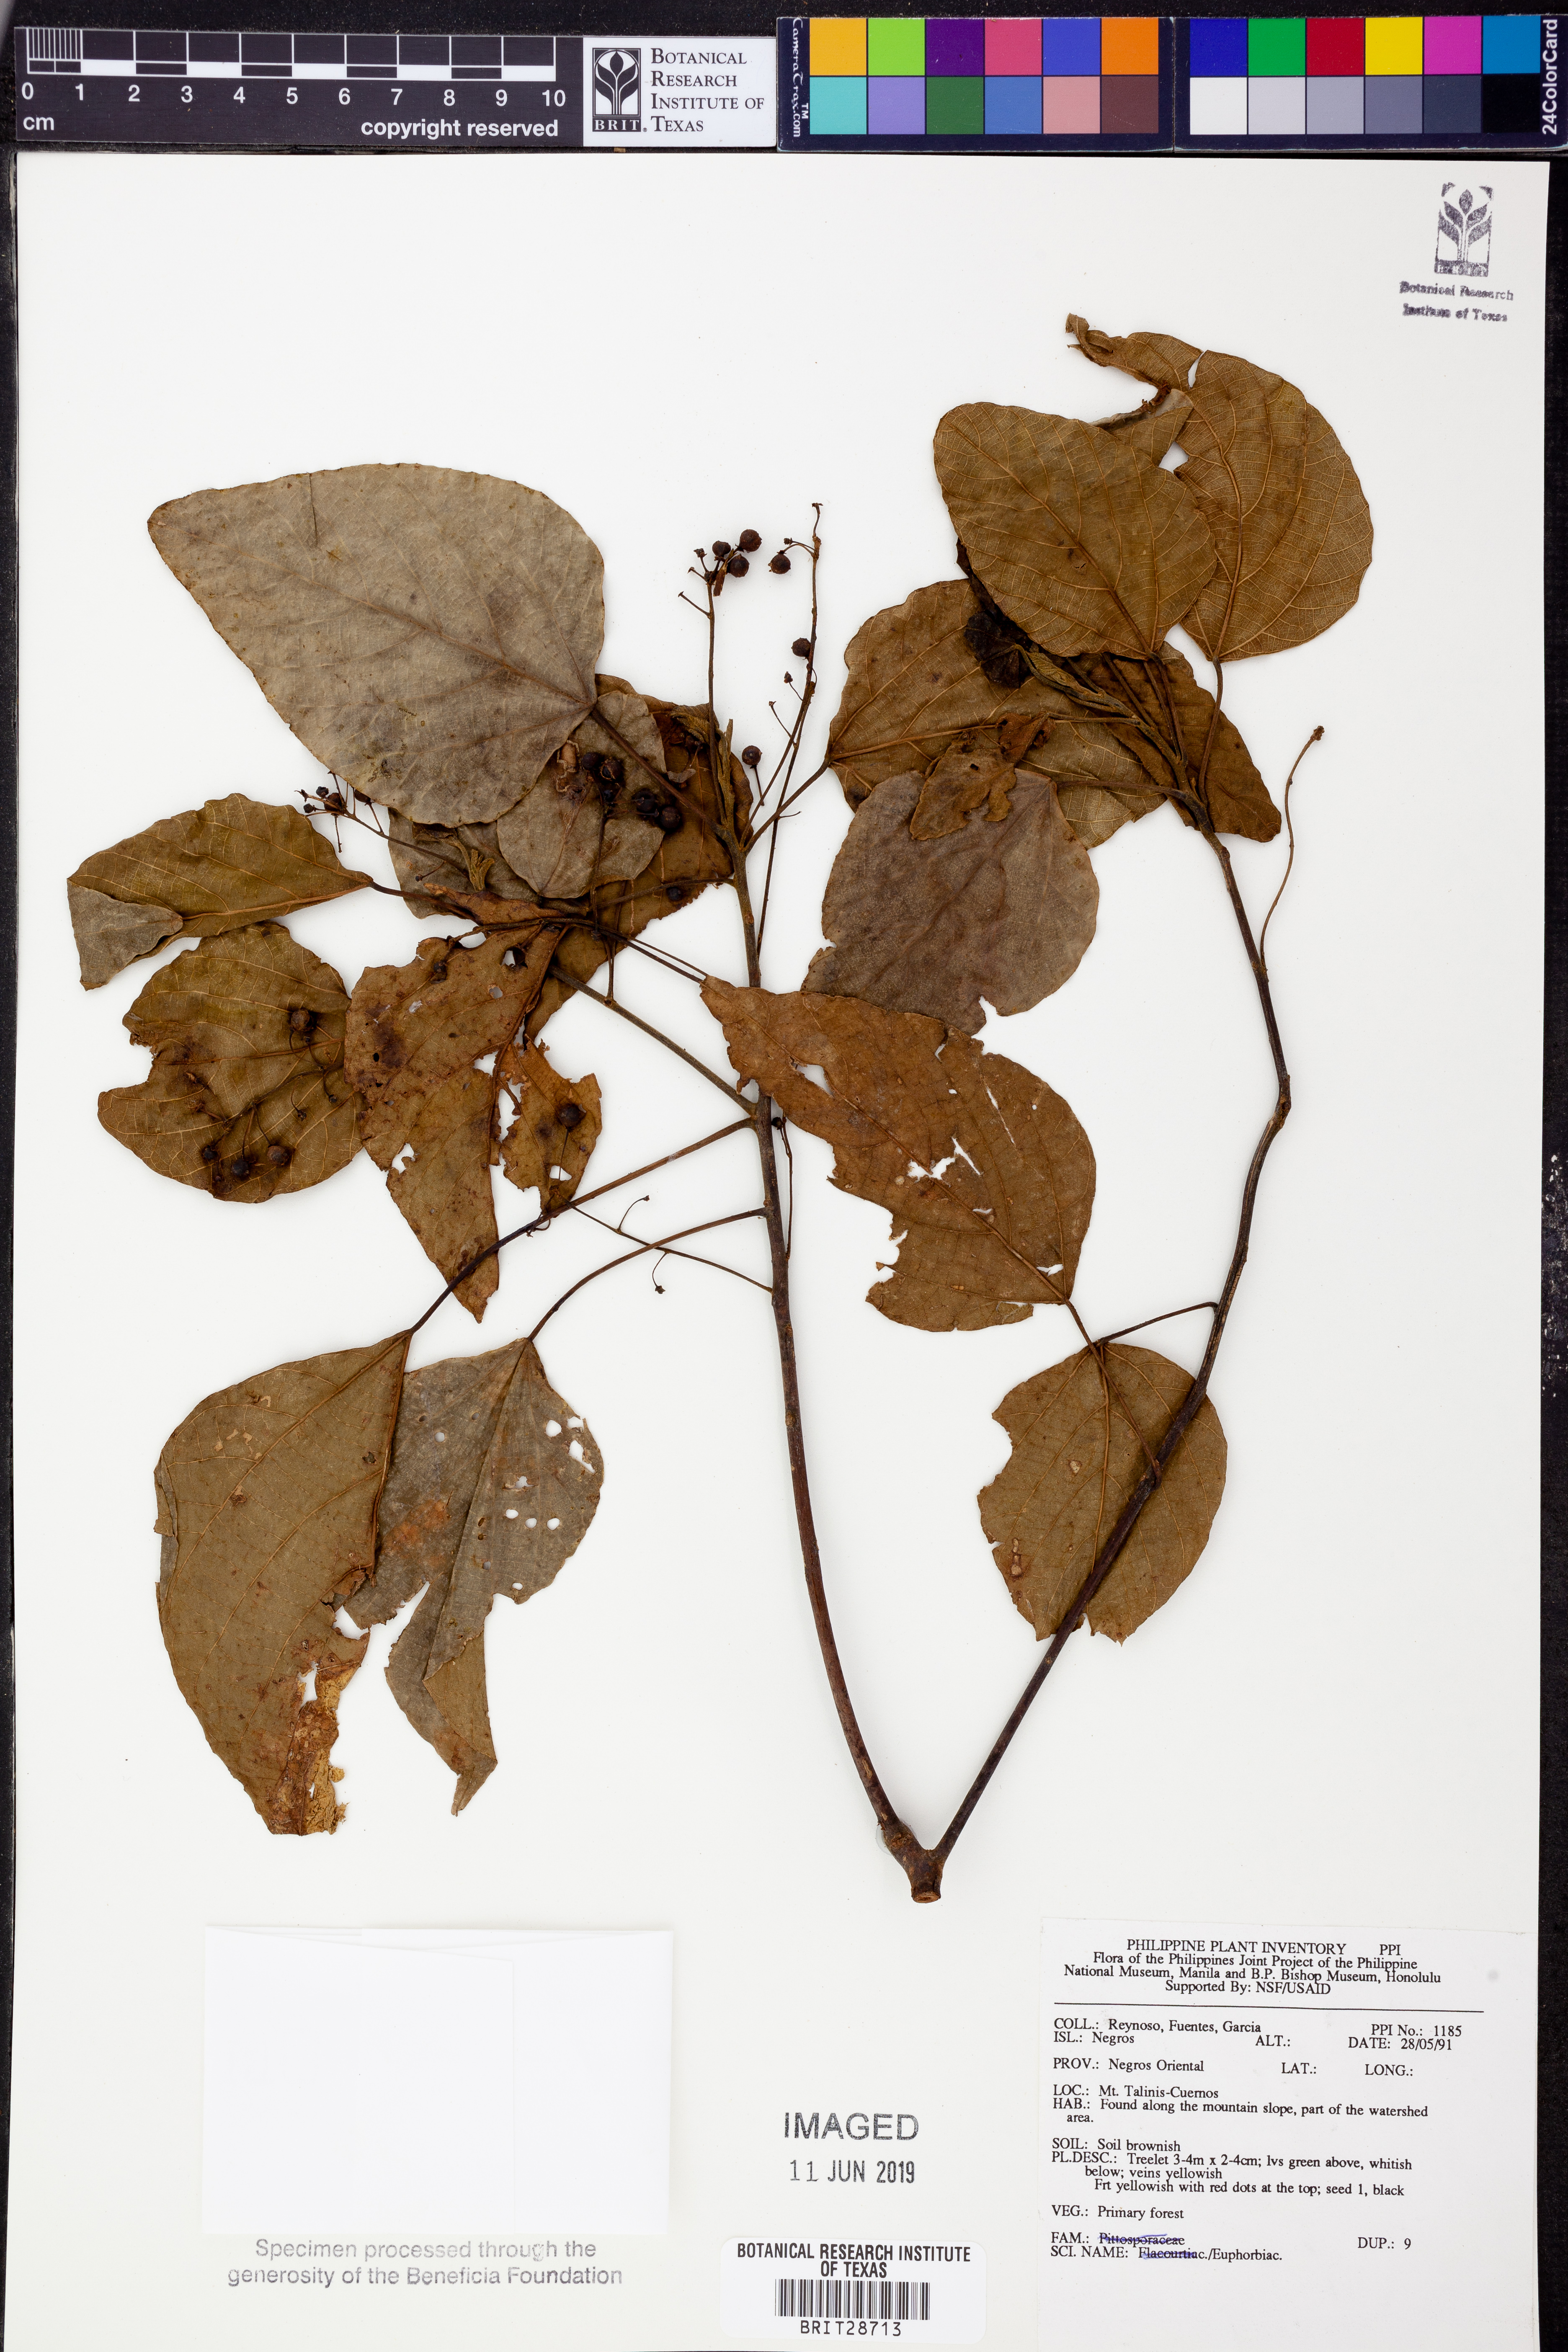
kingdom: Plantae
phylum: Tracheophyta
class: Magnoliopsida
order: Malpighiales
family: Euphorbiaceae
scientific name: Euphorbiaceae
